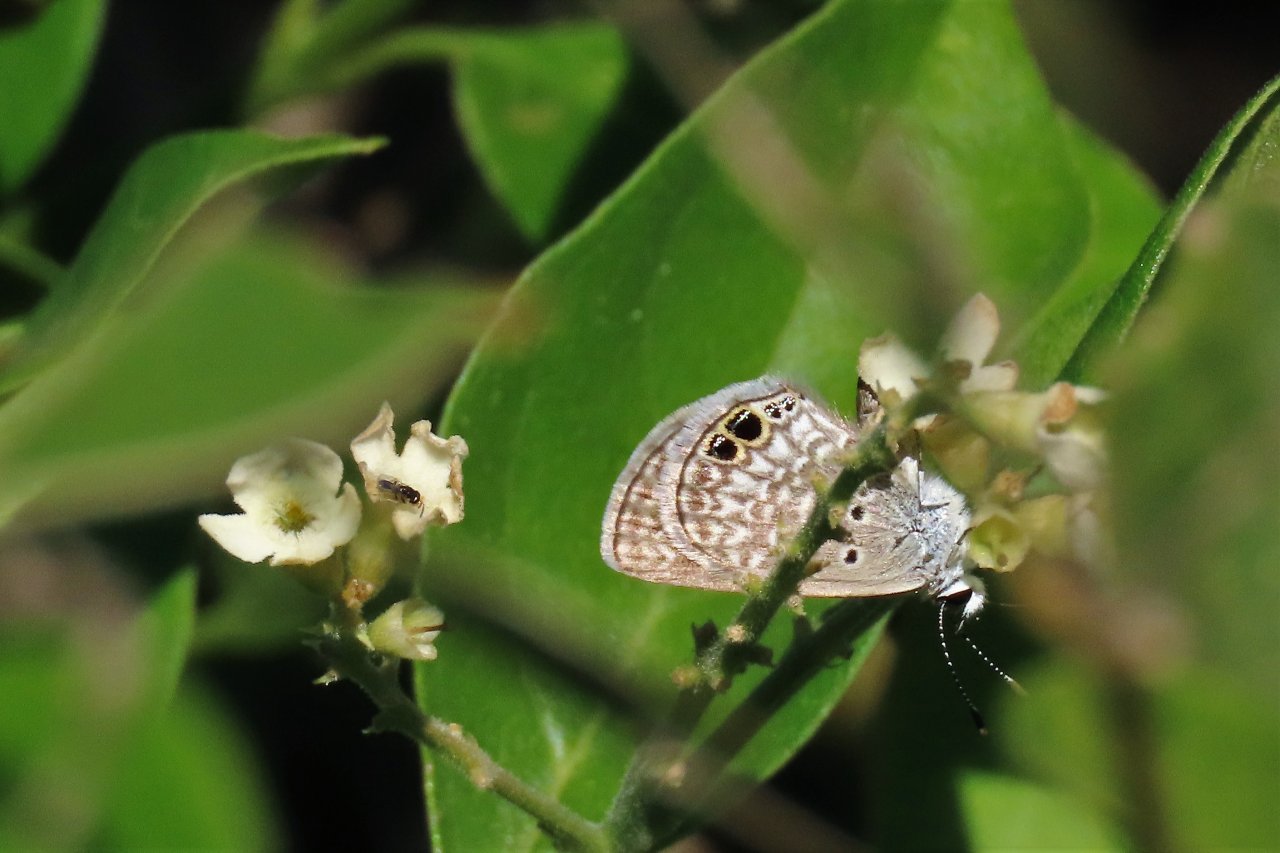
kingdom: Animalia
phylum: Arthropoda
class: Insecta
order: Lepidoptera
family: Lycaenidae
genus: Hemiargus
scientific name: Hemiargus ceraunus
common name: Ceraunus Blue
